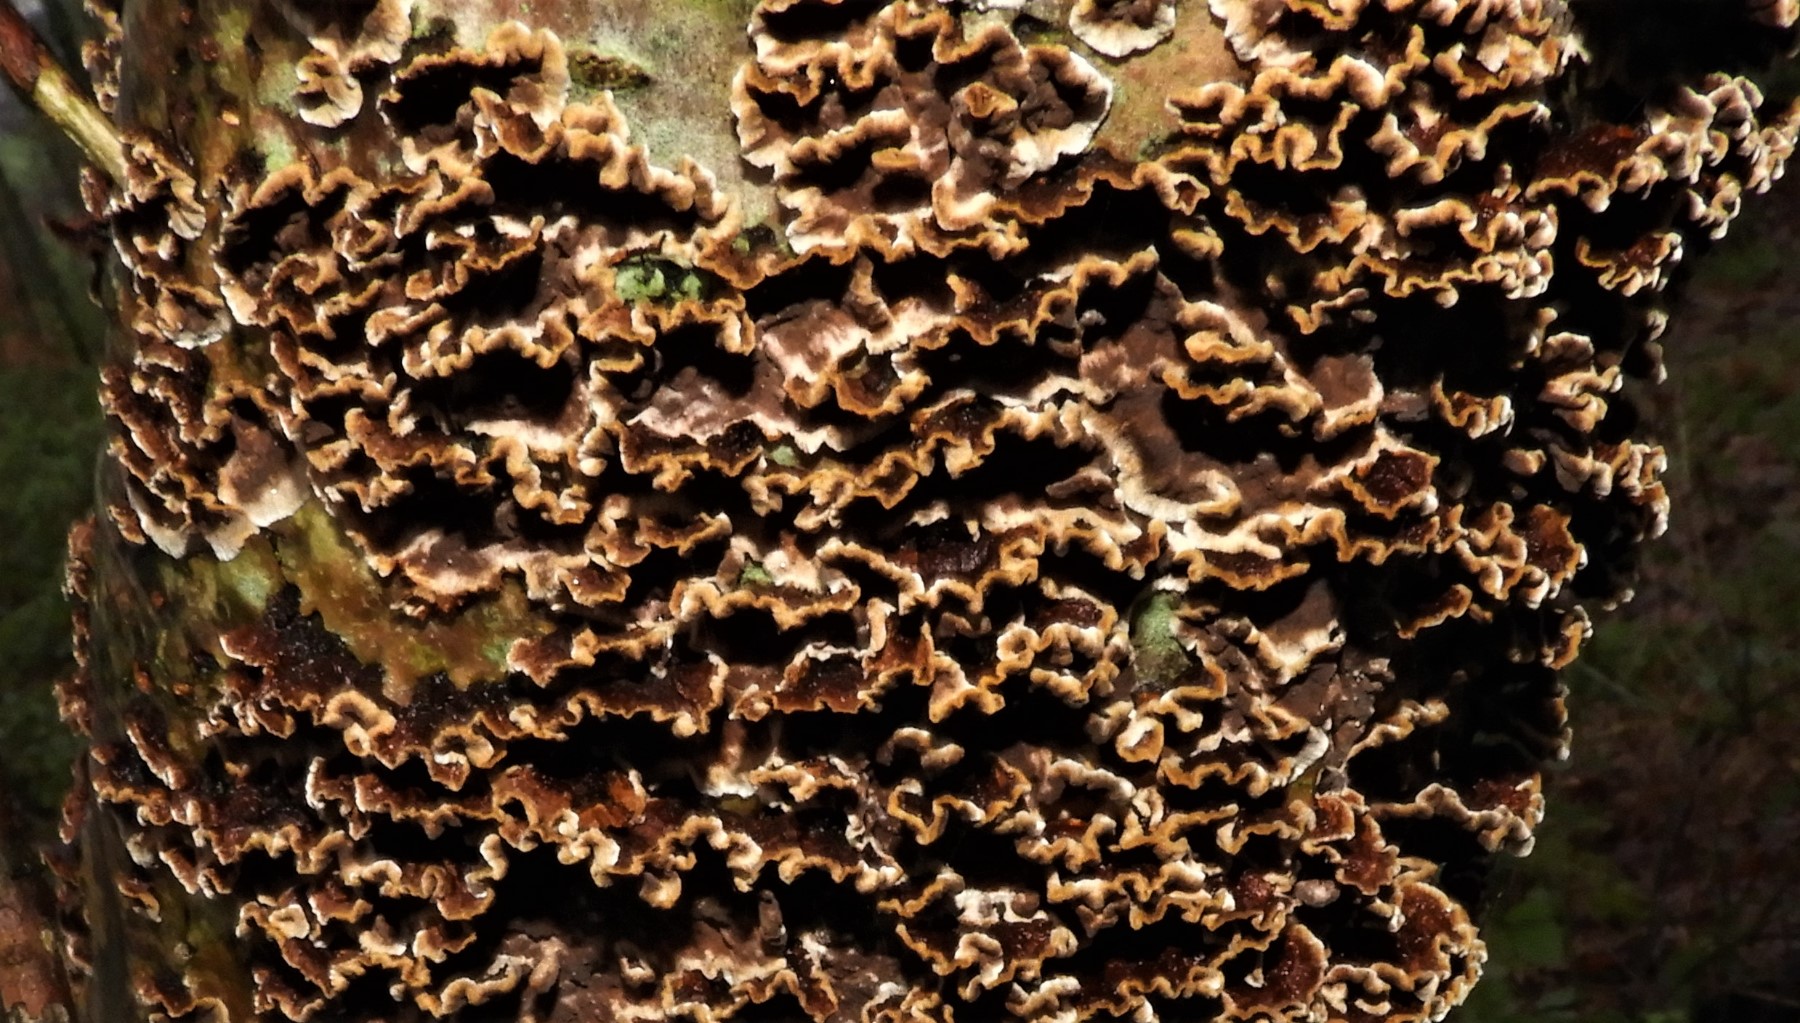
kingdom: Fungi
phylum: Basidiomycota
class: Agaricomycetes
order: Hymenochaetales
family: Hymenochaetaceae
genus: Hydnoporia
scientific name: Hydnoporia tabacina
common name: tobaksbrun ruslædersvamp
